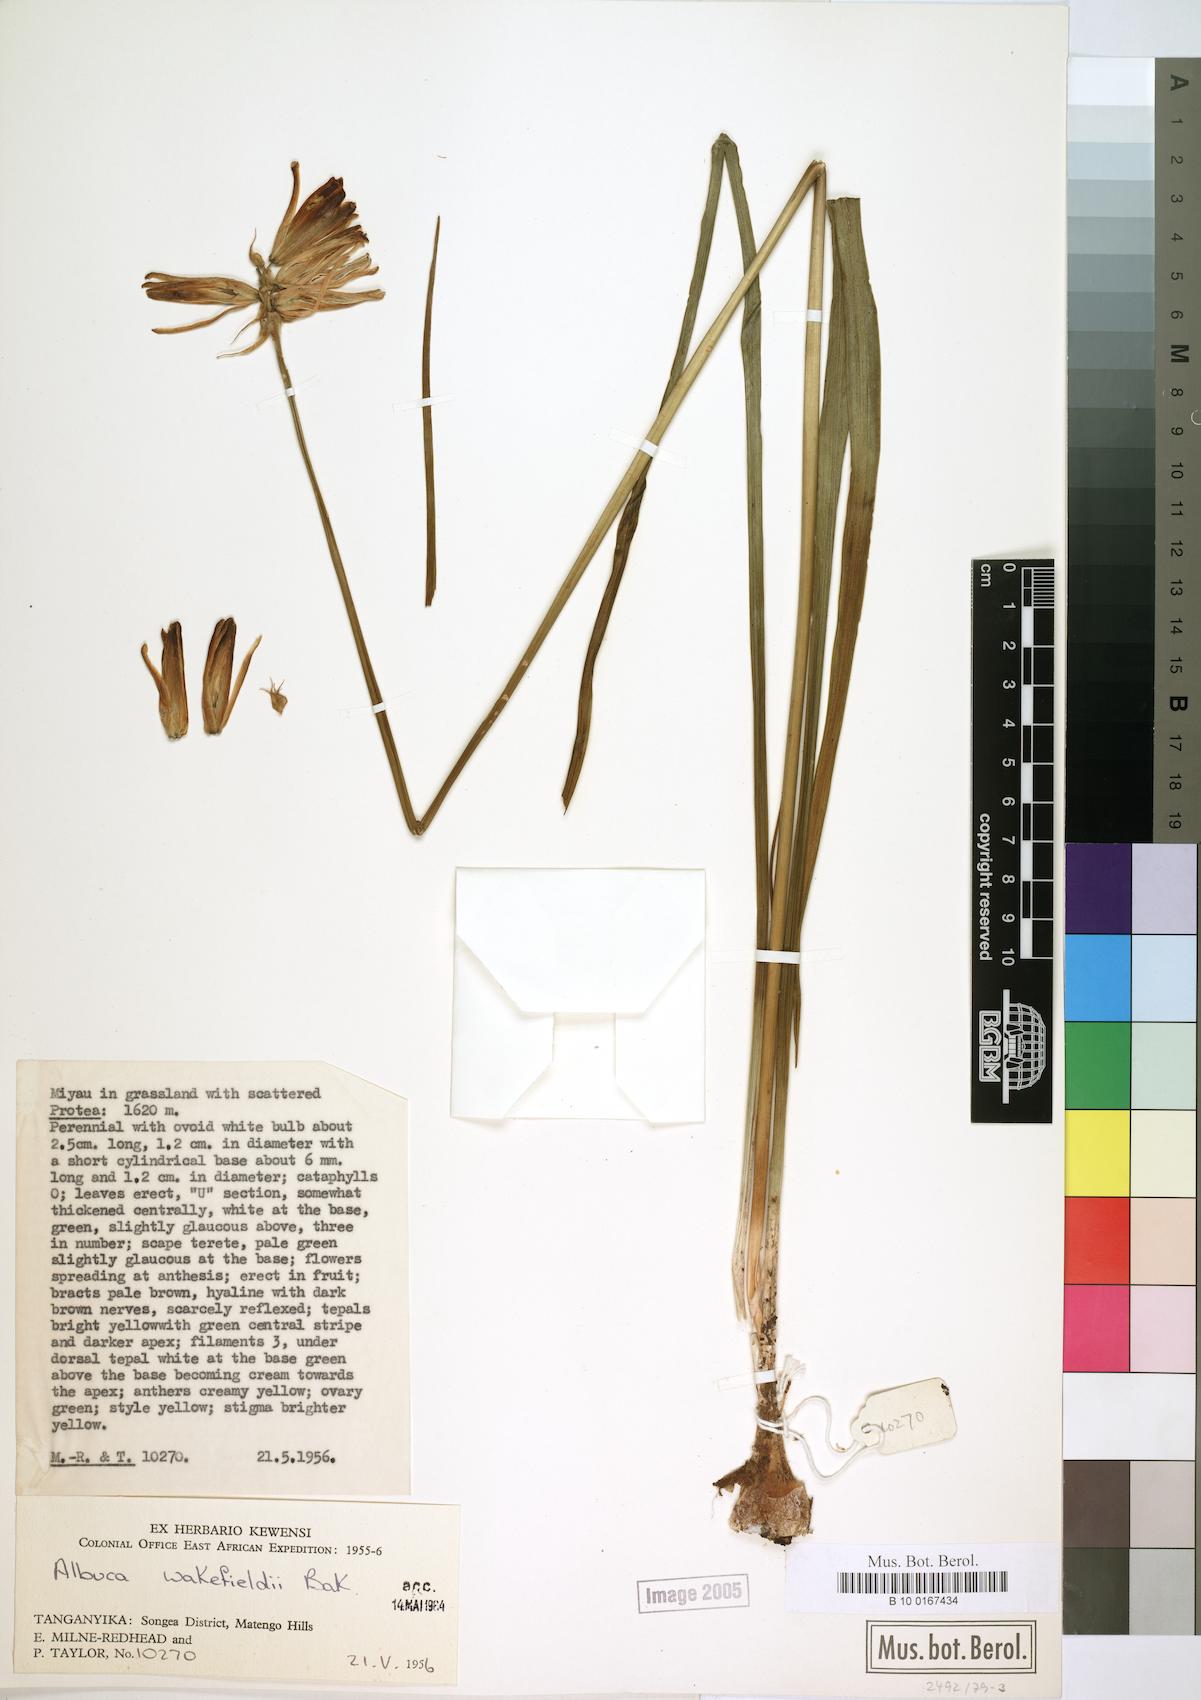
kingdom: Plantae
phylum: Tracheophyta
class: Liliopsida
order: Asparagales
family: Asparagaceae
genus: Albuca
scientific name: Albuca abyssinica
